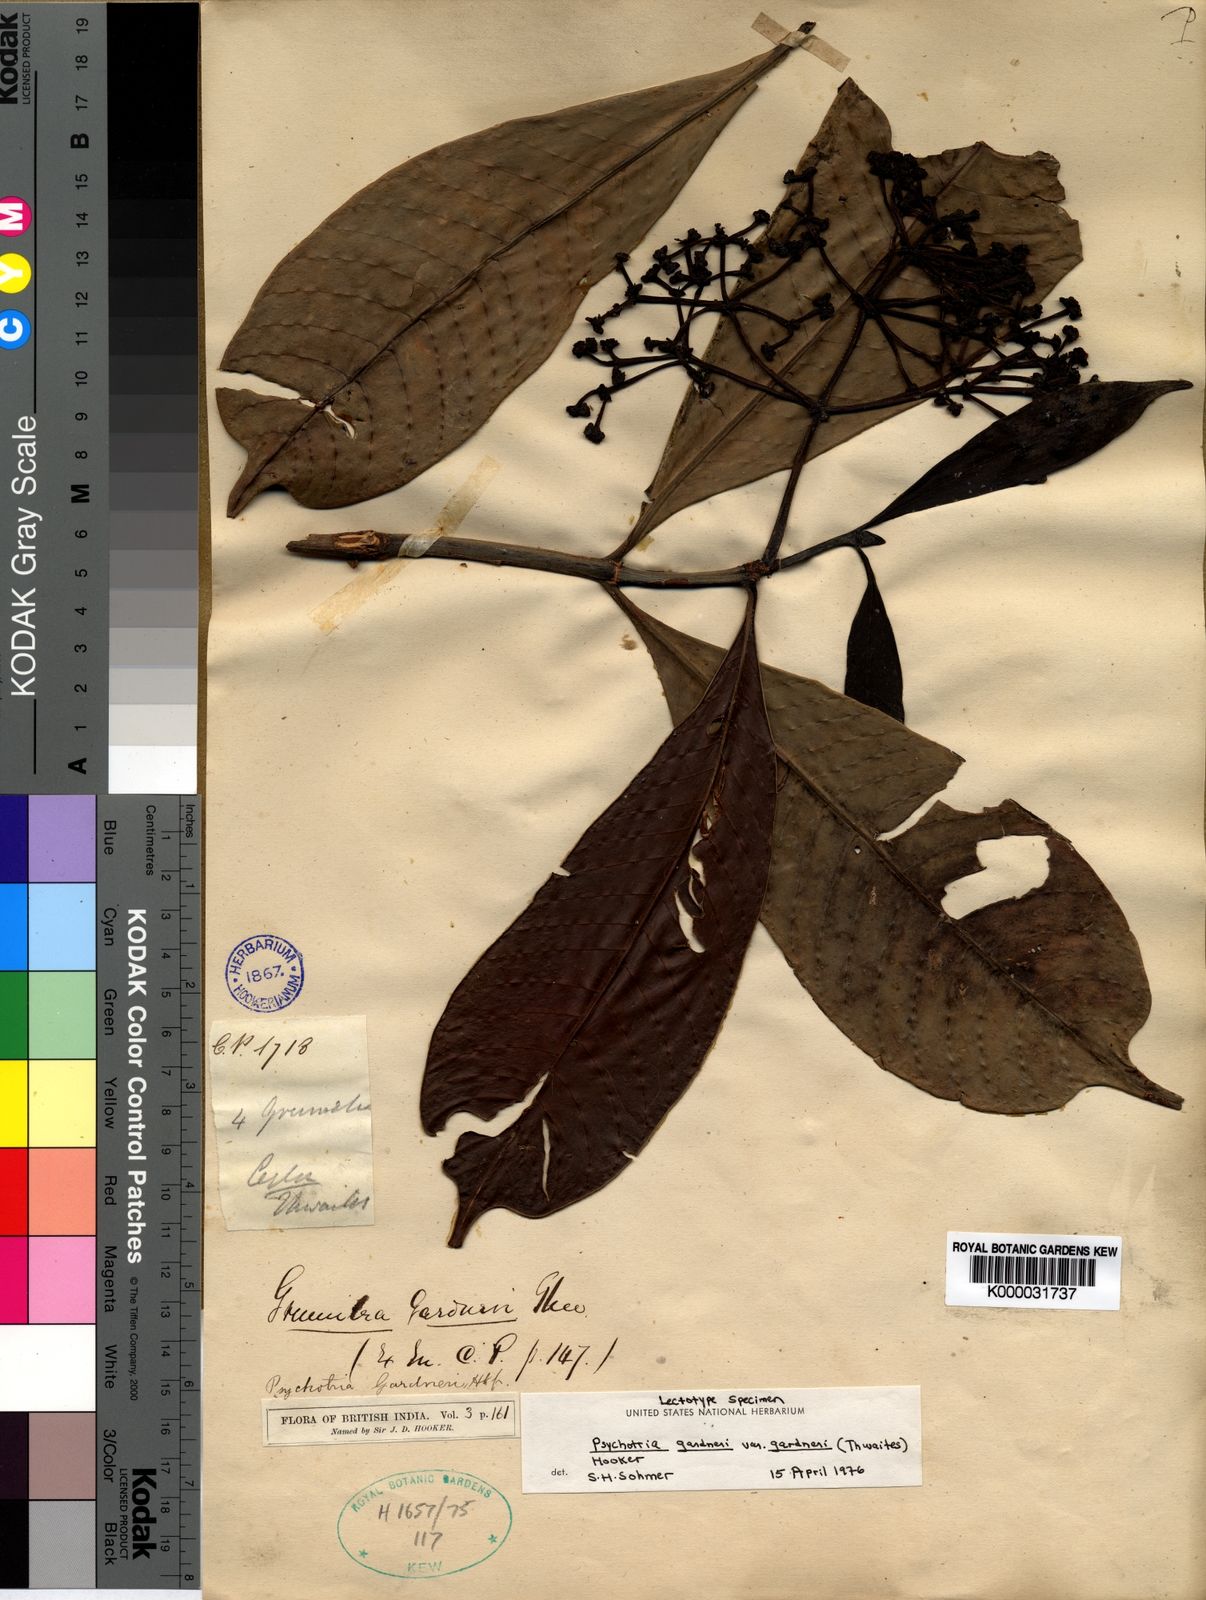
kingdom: Plantae
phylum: Tracheophyta
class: Magnoliopsida
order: Gentianales
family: Rubiaceae
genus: Psychotria
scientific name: Psychotria gardneri
